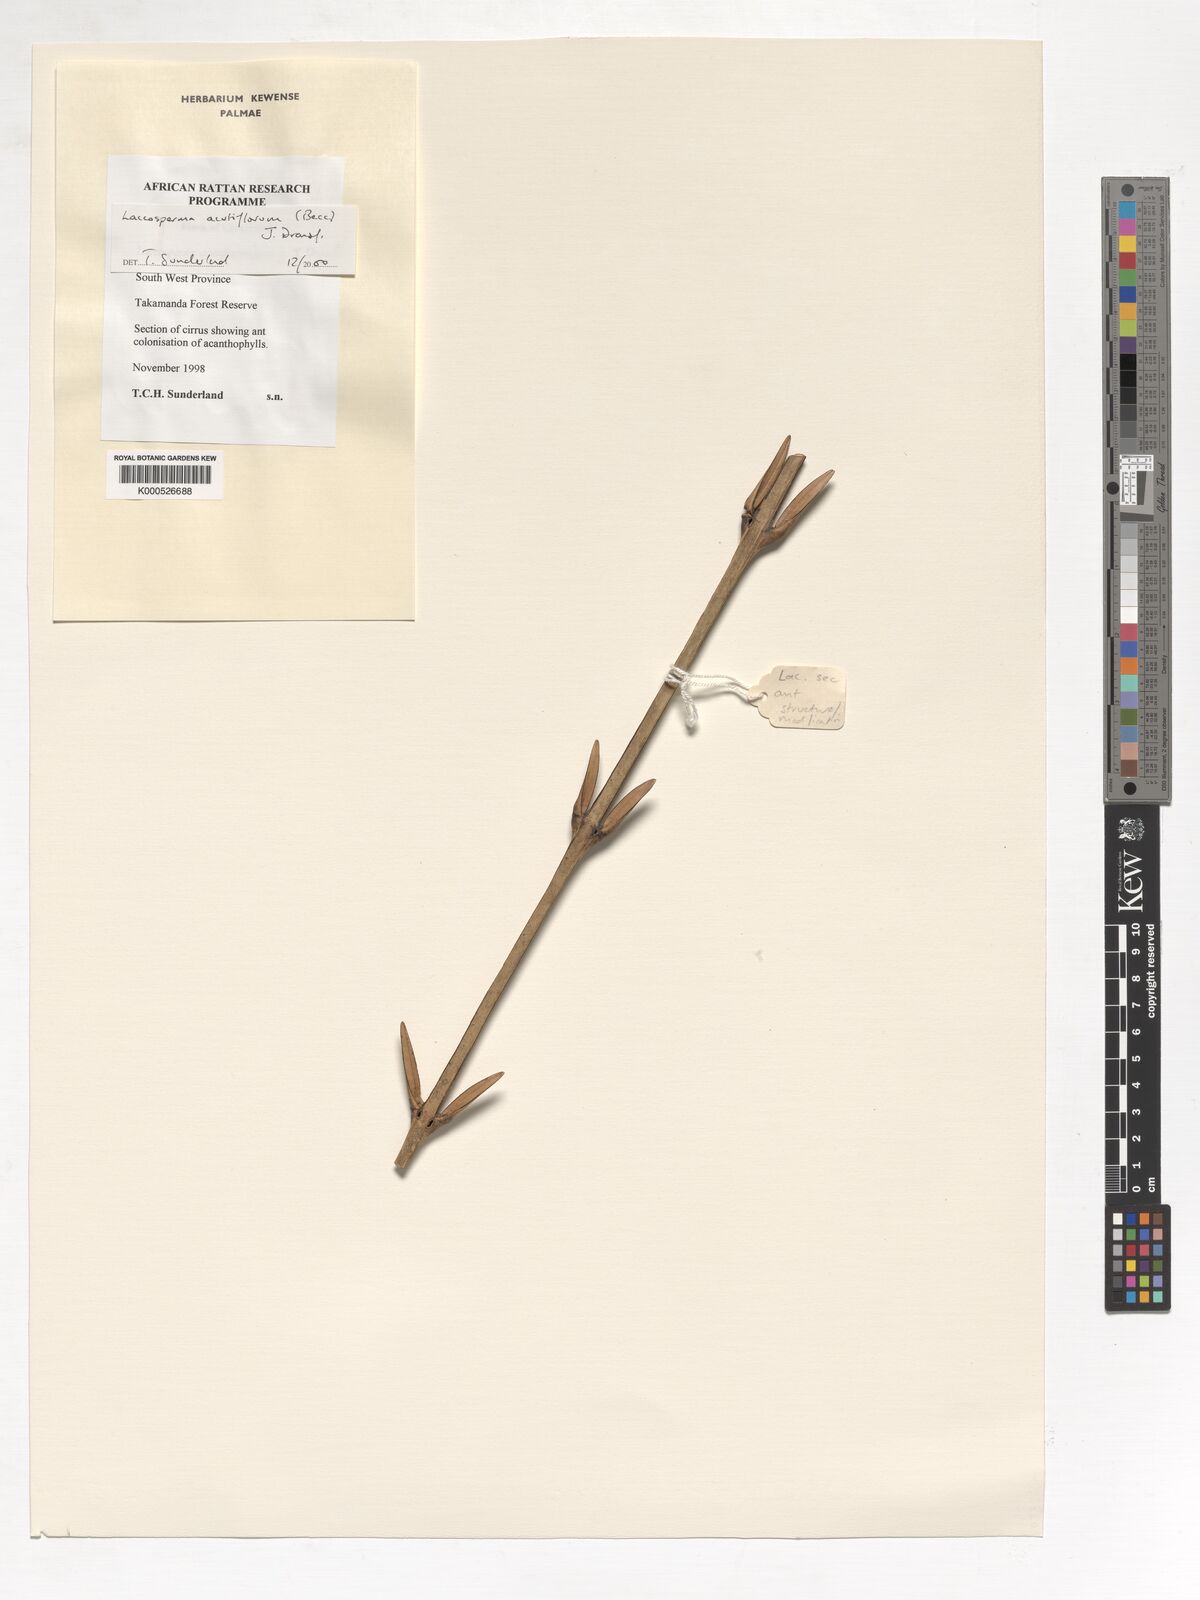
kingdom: Plantae
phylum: Tracheophyta
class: Liliopsida
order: Arecales
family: Arecaceae
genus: Laccosperma
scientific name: Laccosperma acutiflorum
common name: Rattan
